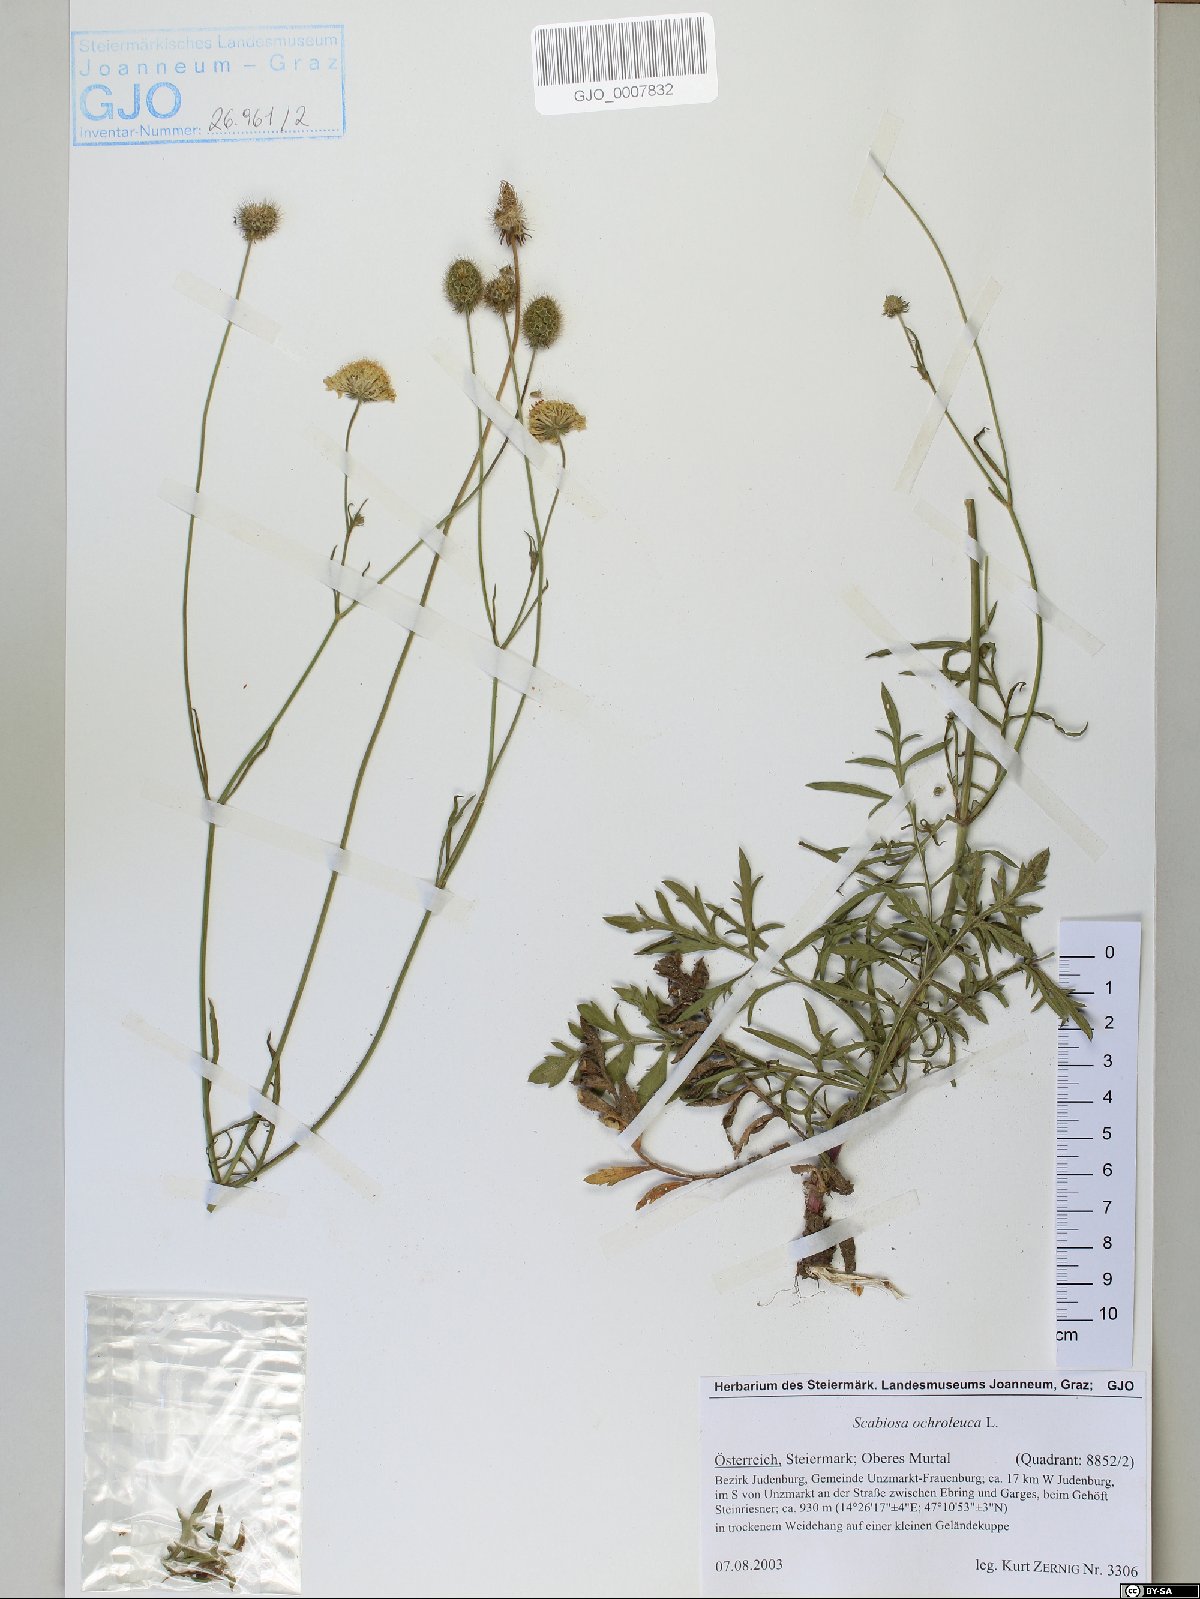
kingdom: Plantae
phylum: Tracheophyta
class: Magnoliopsida
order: Dipsacales
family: Caprifoliaceae
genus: Scabiosa
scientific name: Scabiosa ochroleuca
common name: Cream pincushions
